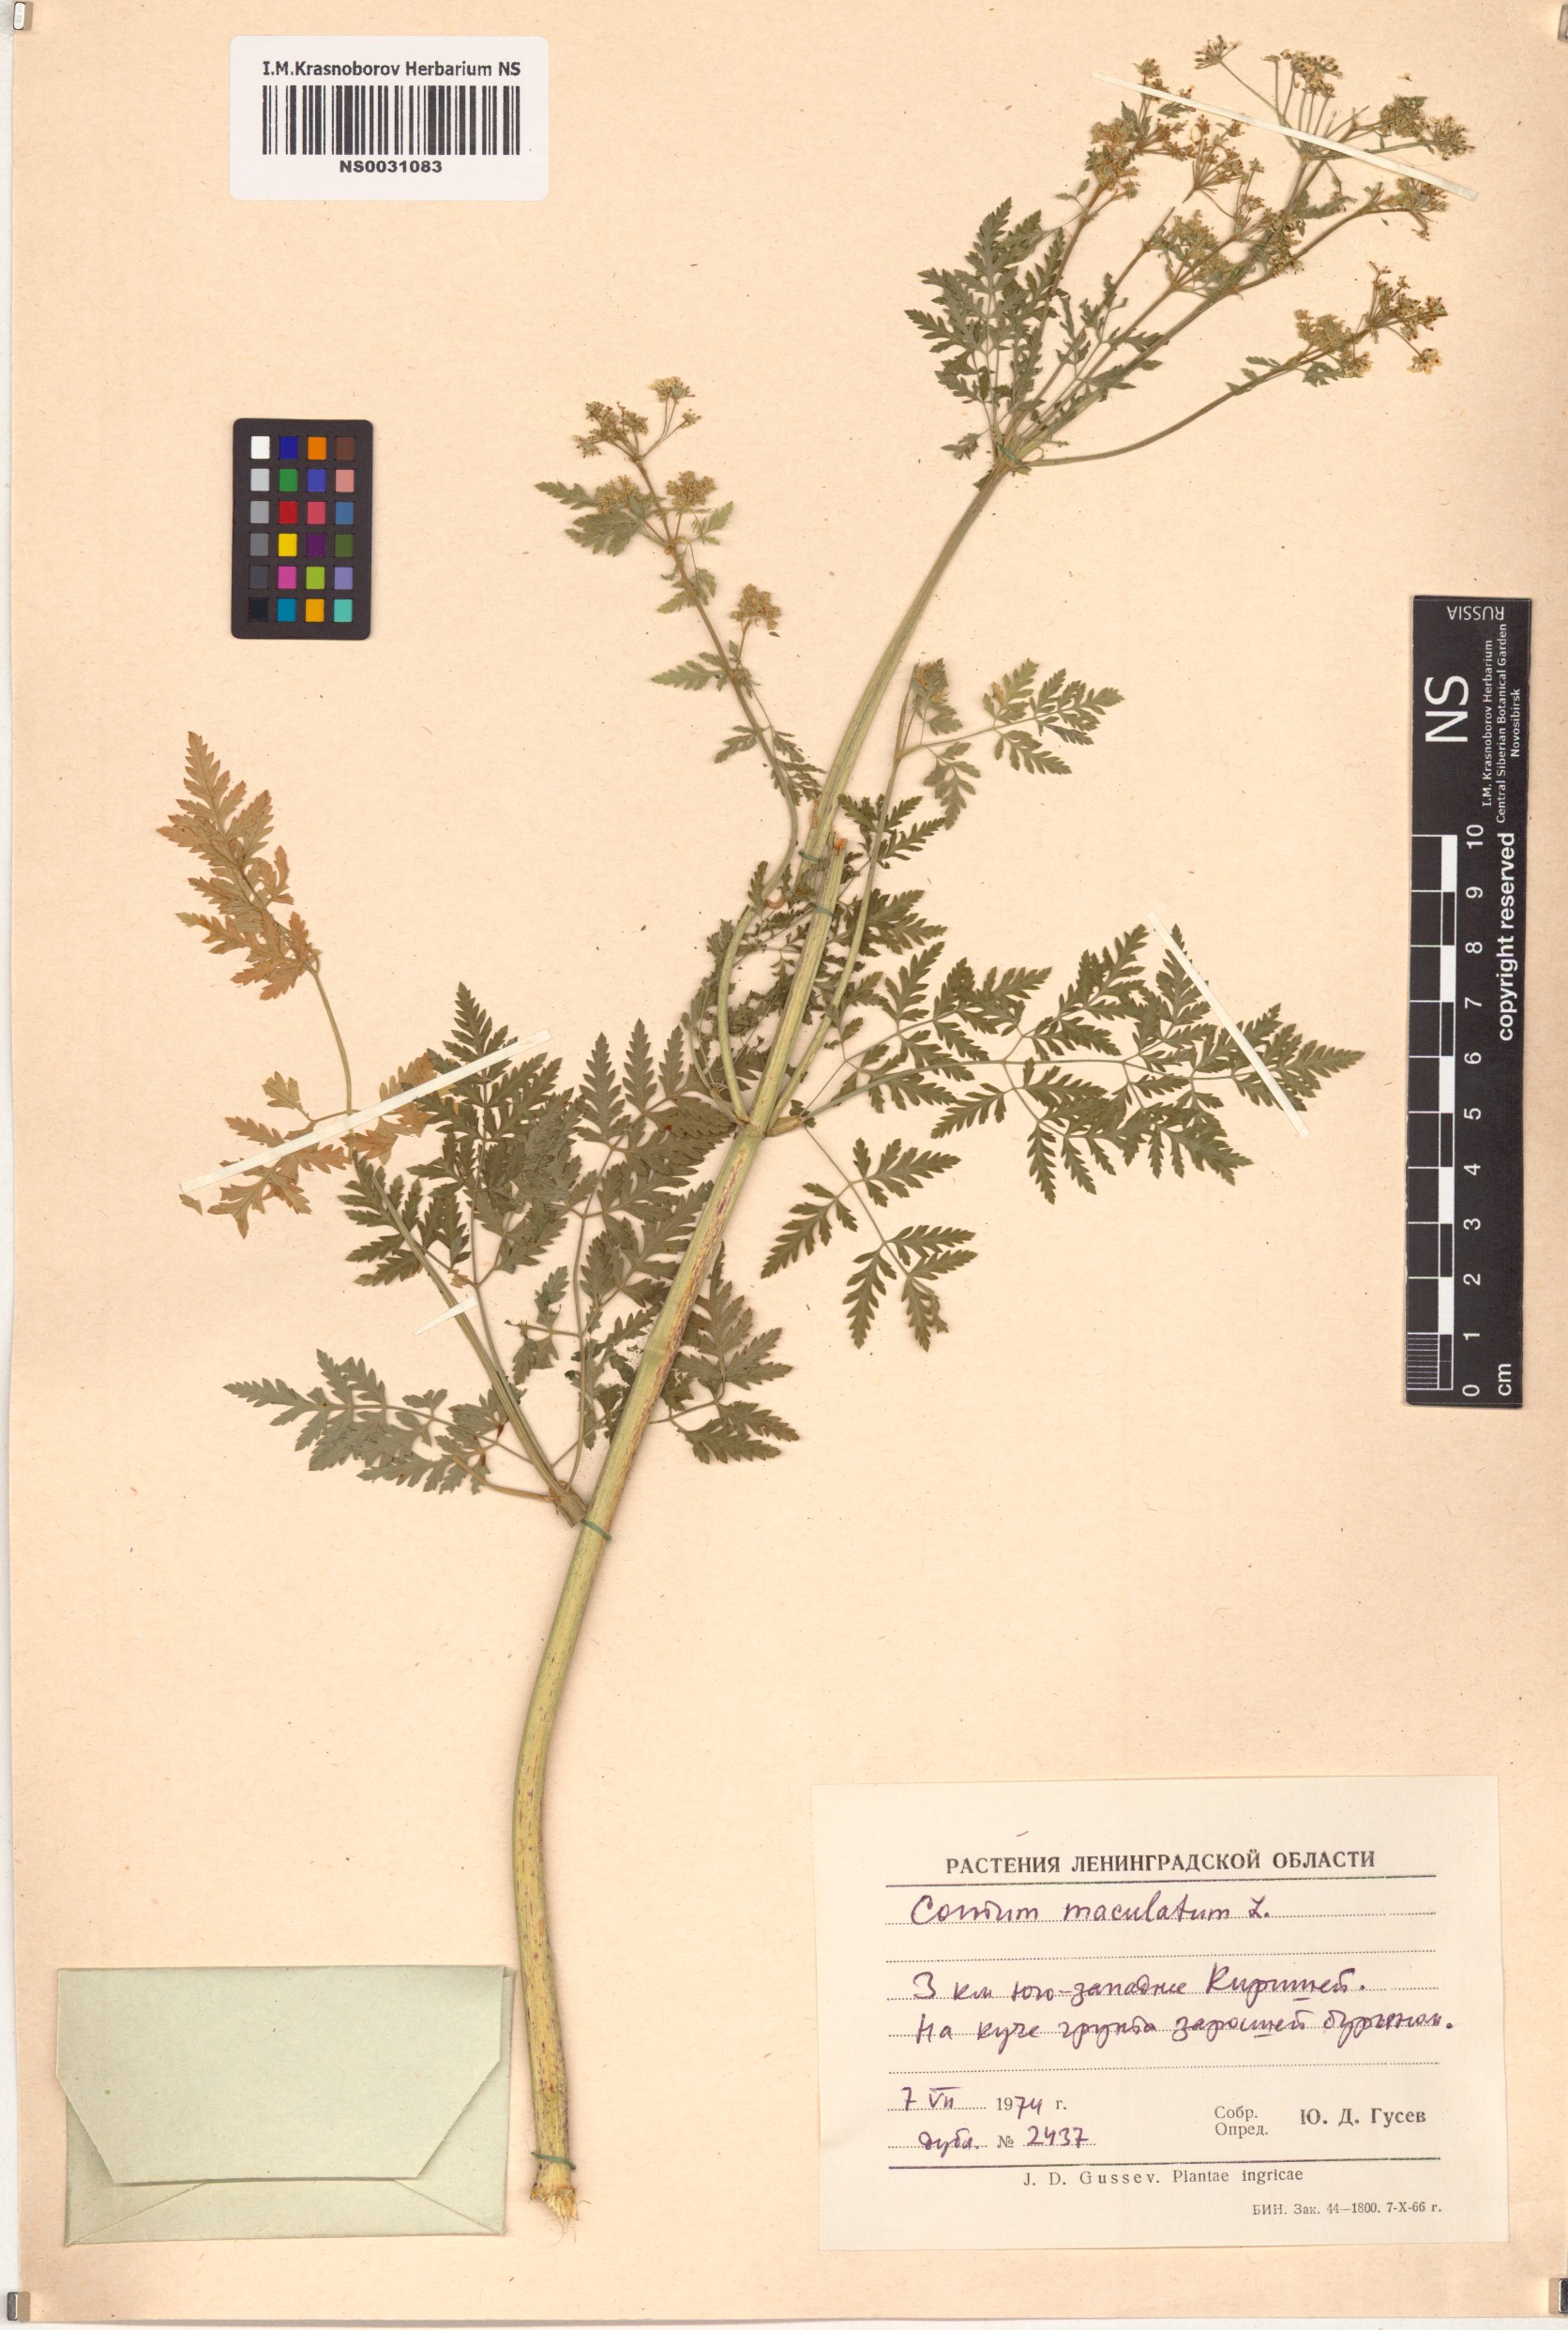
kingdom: Plantae
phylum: Tracheophyta
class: Magnoliopsida
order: Apiales
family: Apiaceae
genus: Conium
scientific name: Conium maculatum
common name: Hemlock
